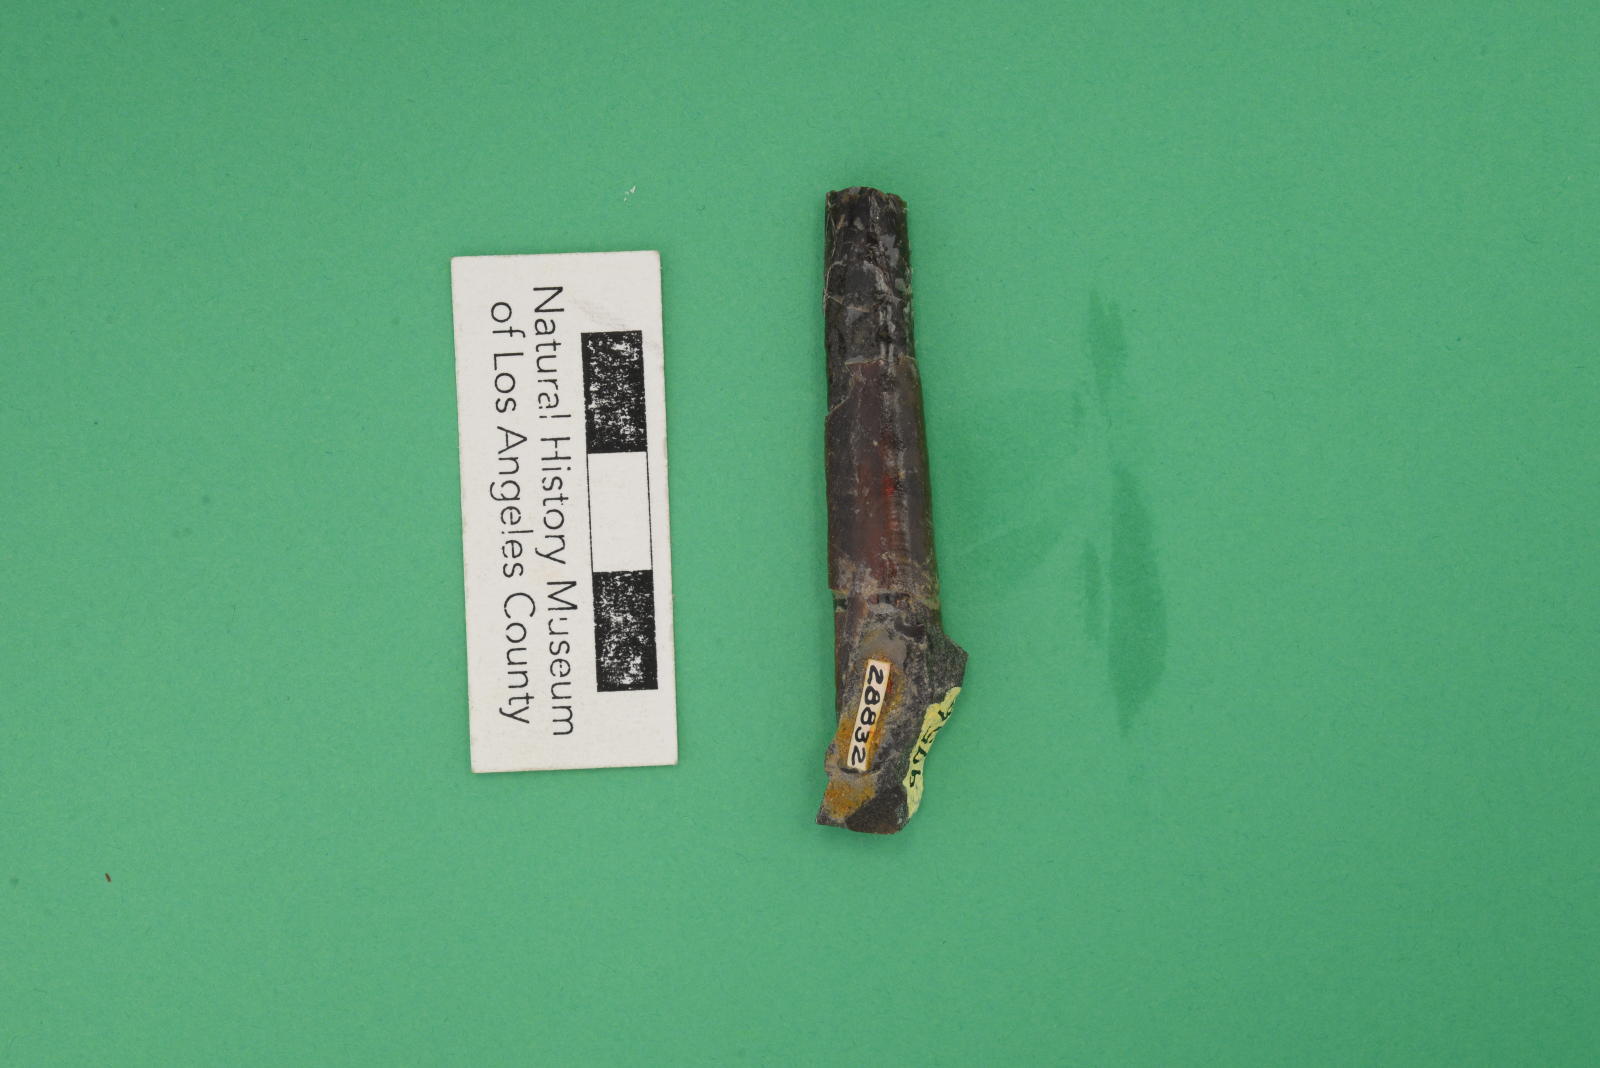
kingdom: Animalia
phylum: Mollusca
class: Cephalopoda
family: Baculitidae
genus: Baculites
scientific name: Baculites schencki
